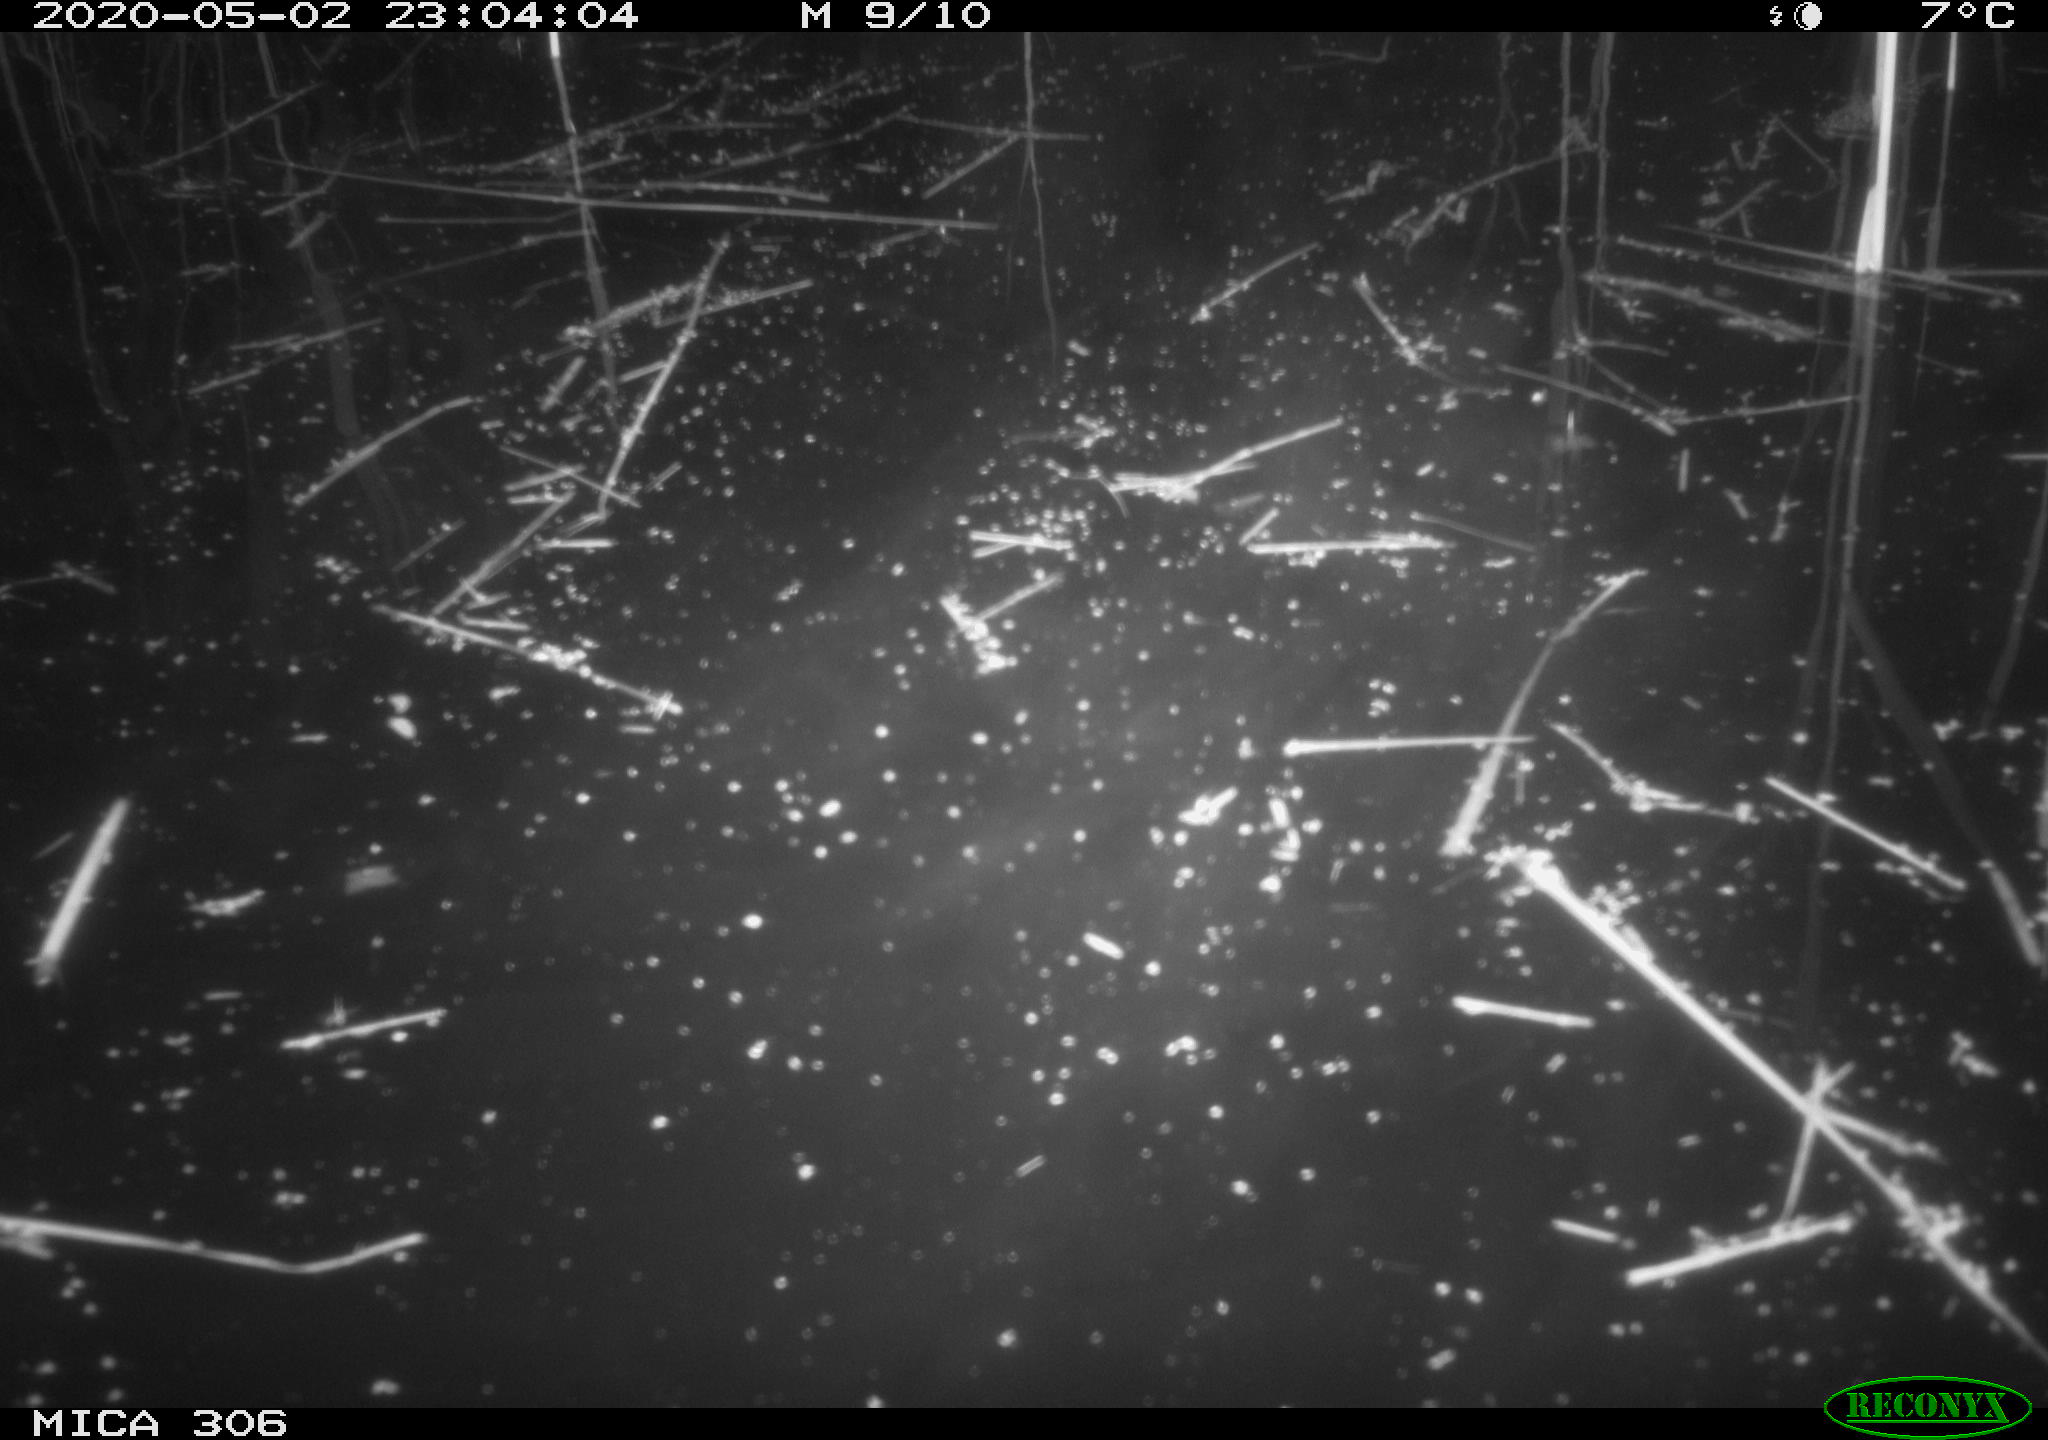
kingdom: Animalia
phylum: Chordata
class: Mammalia
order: Rodentia
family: Cricetidae
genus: Ondatra
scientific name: Ondatra zibethicus
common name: Muskrat
